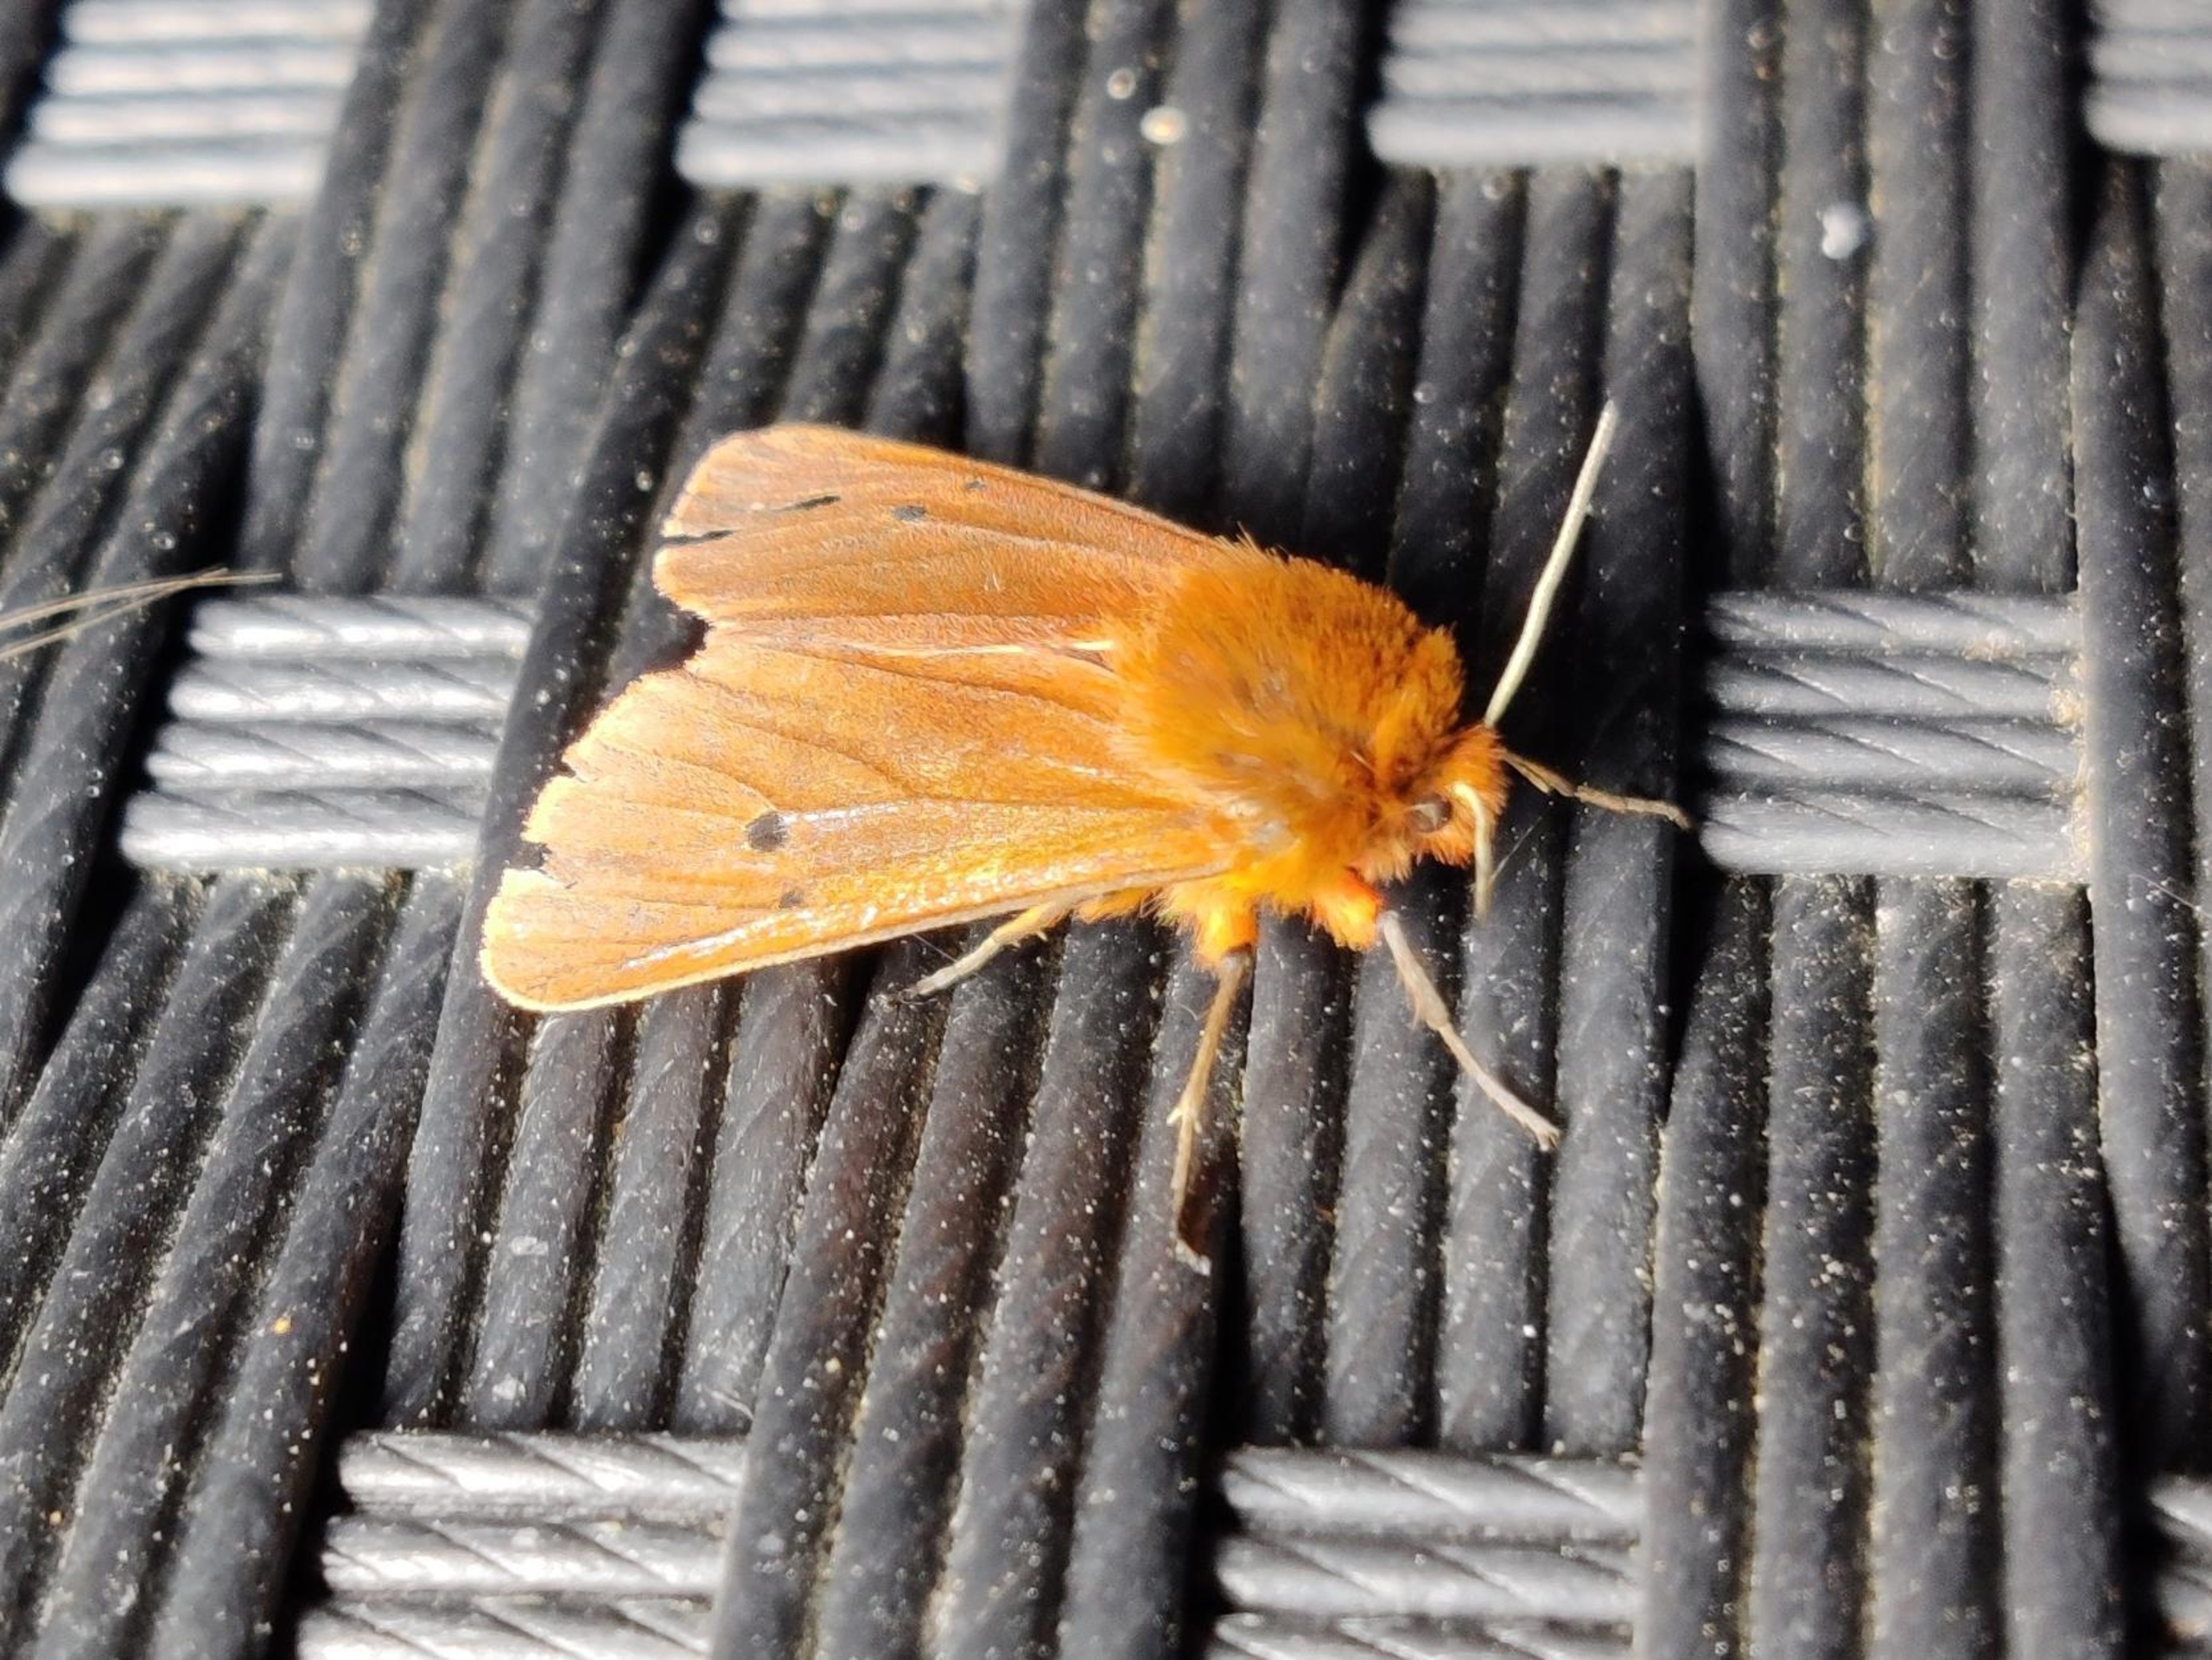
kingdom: Animalia
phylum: Arthropoda
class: Insecta
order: Lepidoptera
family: Erebidae
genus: Phragmatobia
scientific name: Phragmatobia fuliginosa
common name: Kanelbjørn
